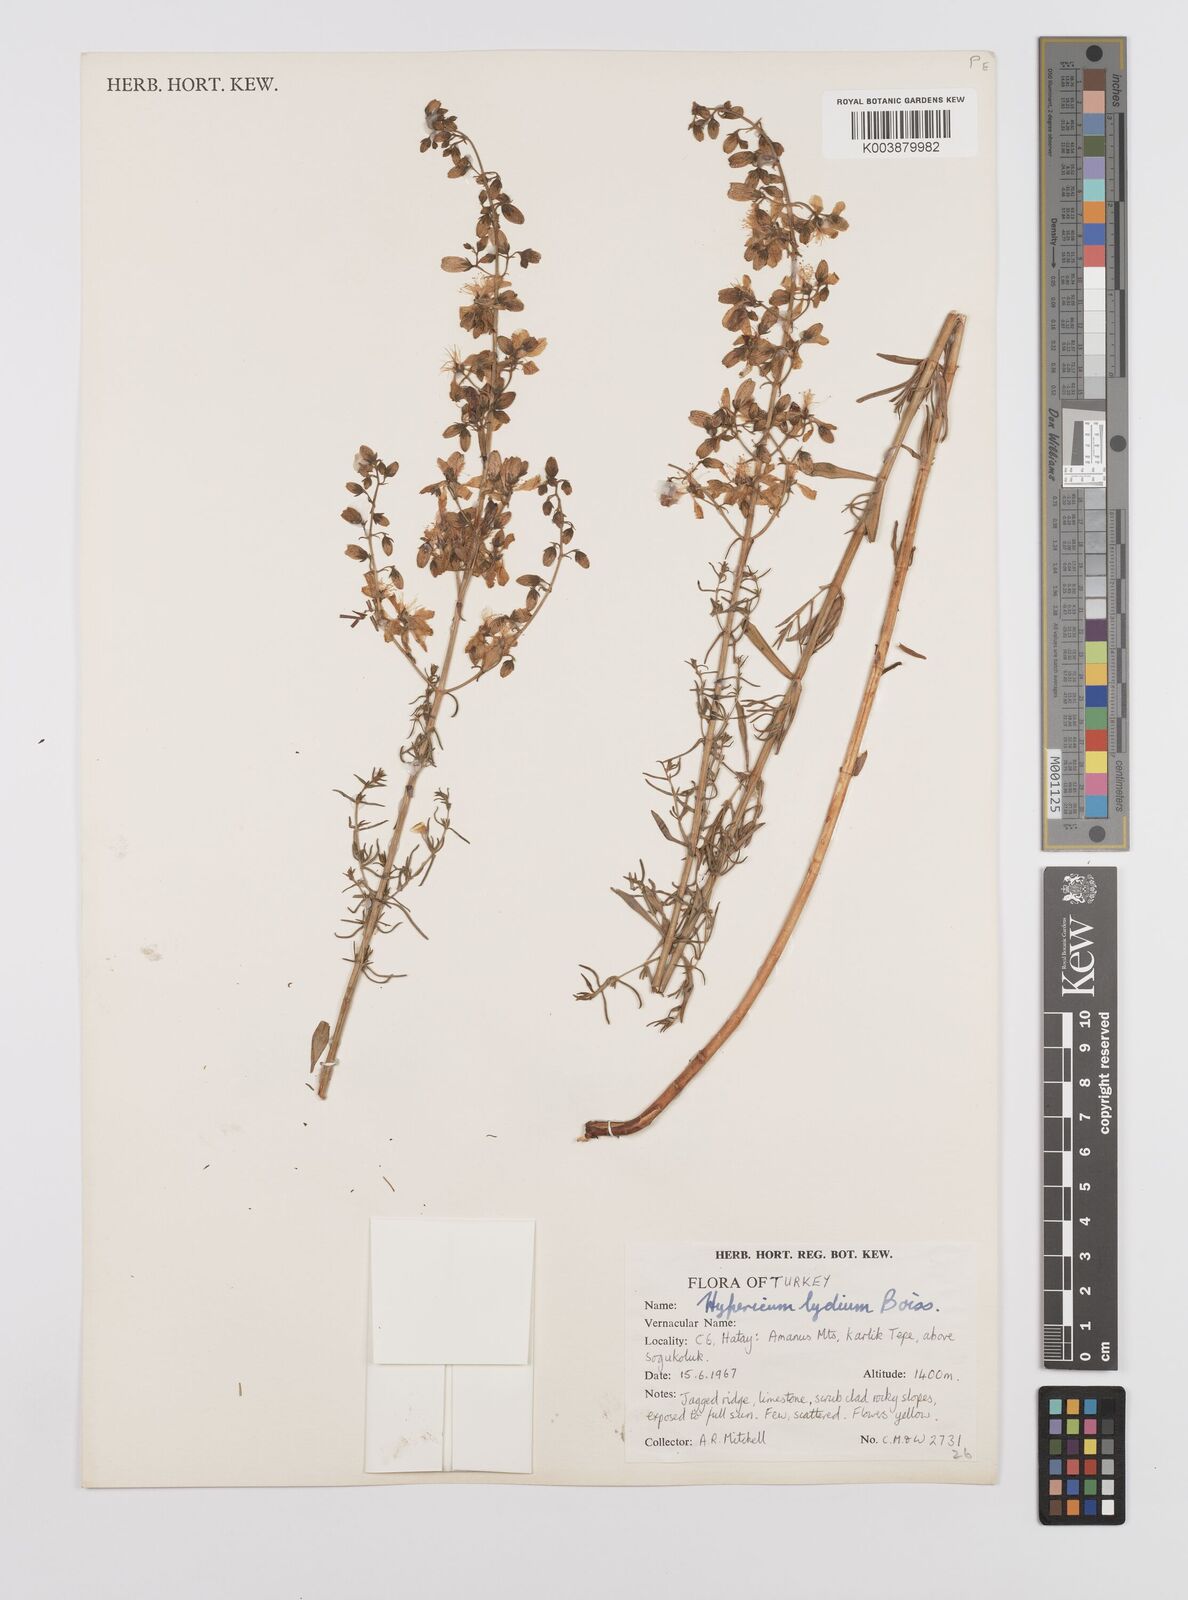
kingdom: Plantae
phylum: Tracheophyta
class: Magnoliopsida
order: Malpighiales
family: Hypericaceae
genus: Hypericum
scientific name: Hypericum lydium
